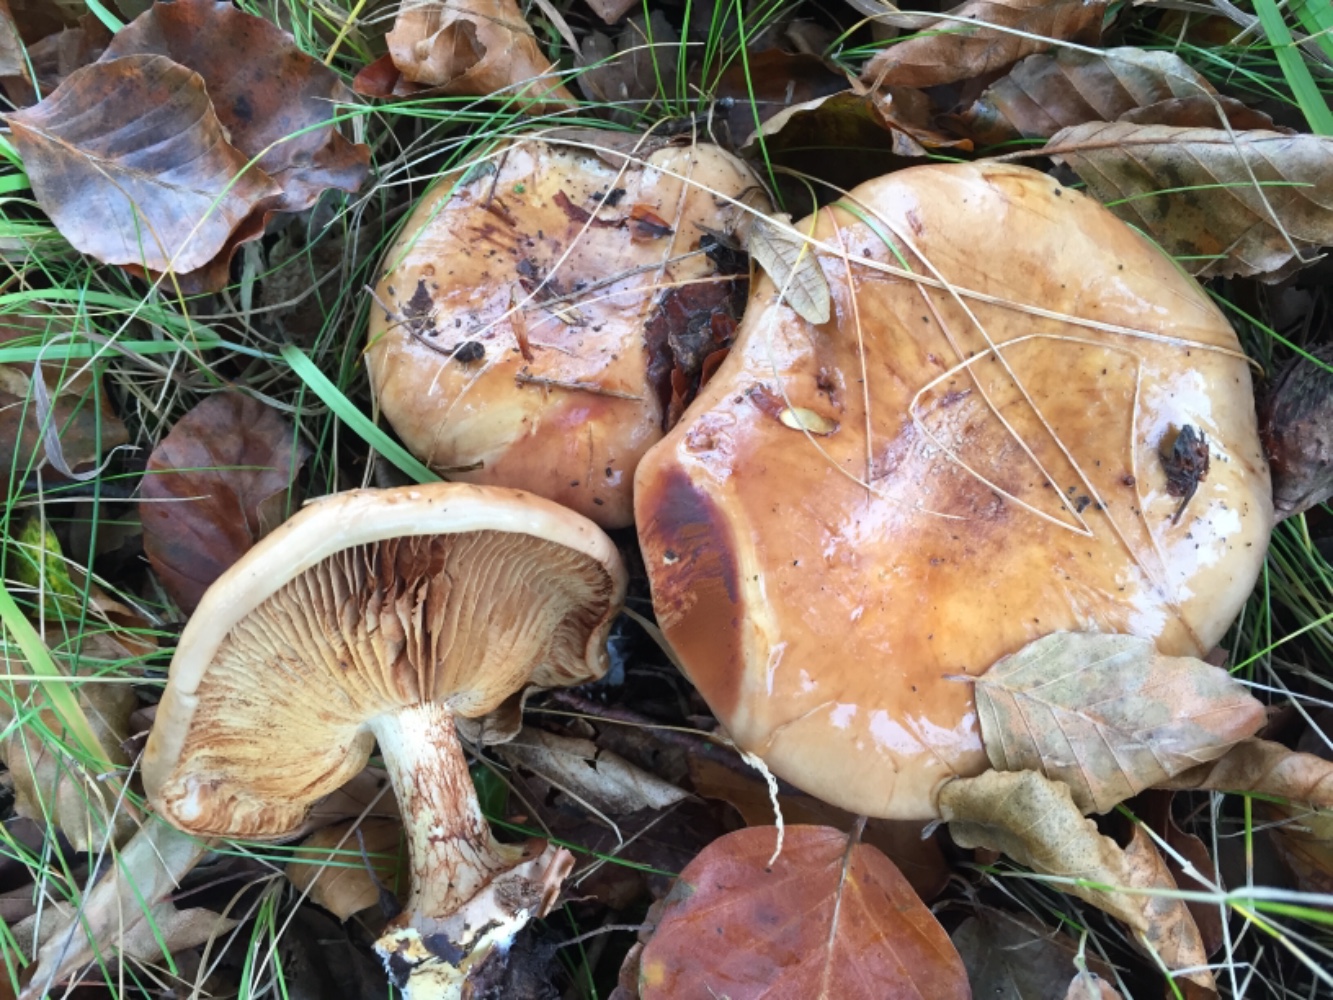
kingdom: Fungi
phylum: Basidiomycota
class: Agaricomycetes
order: Agaricales
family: Cortinariaceae
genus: Calonarius
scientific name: Calonarius humolens
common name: radise-slørhat
